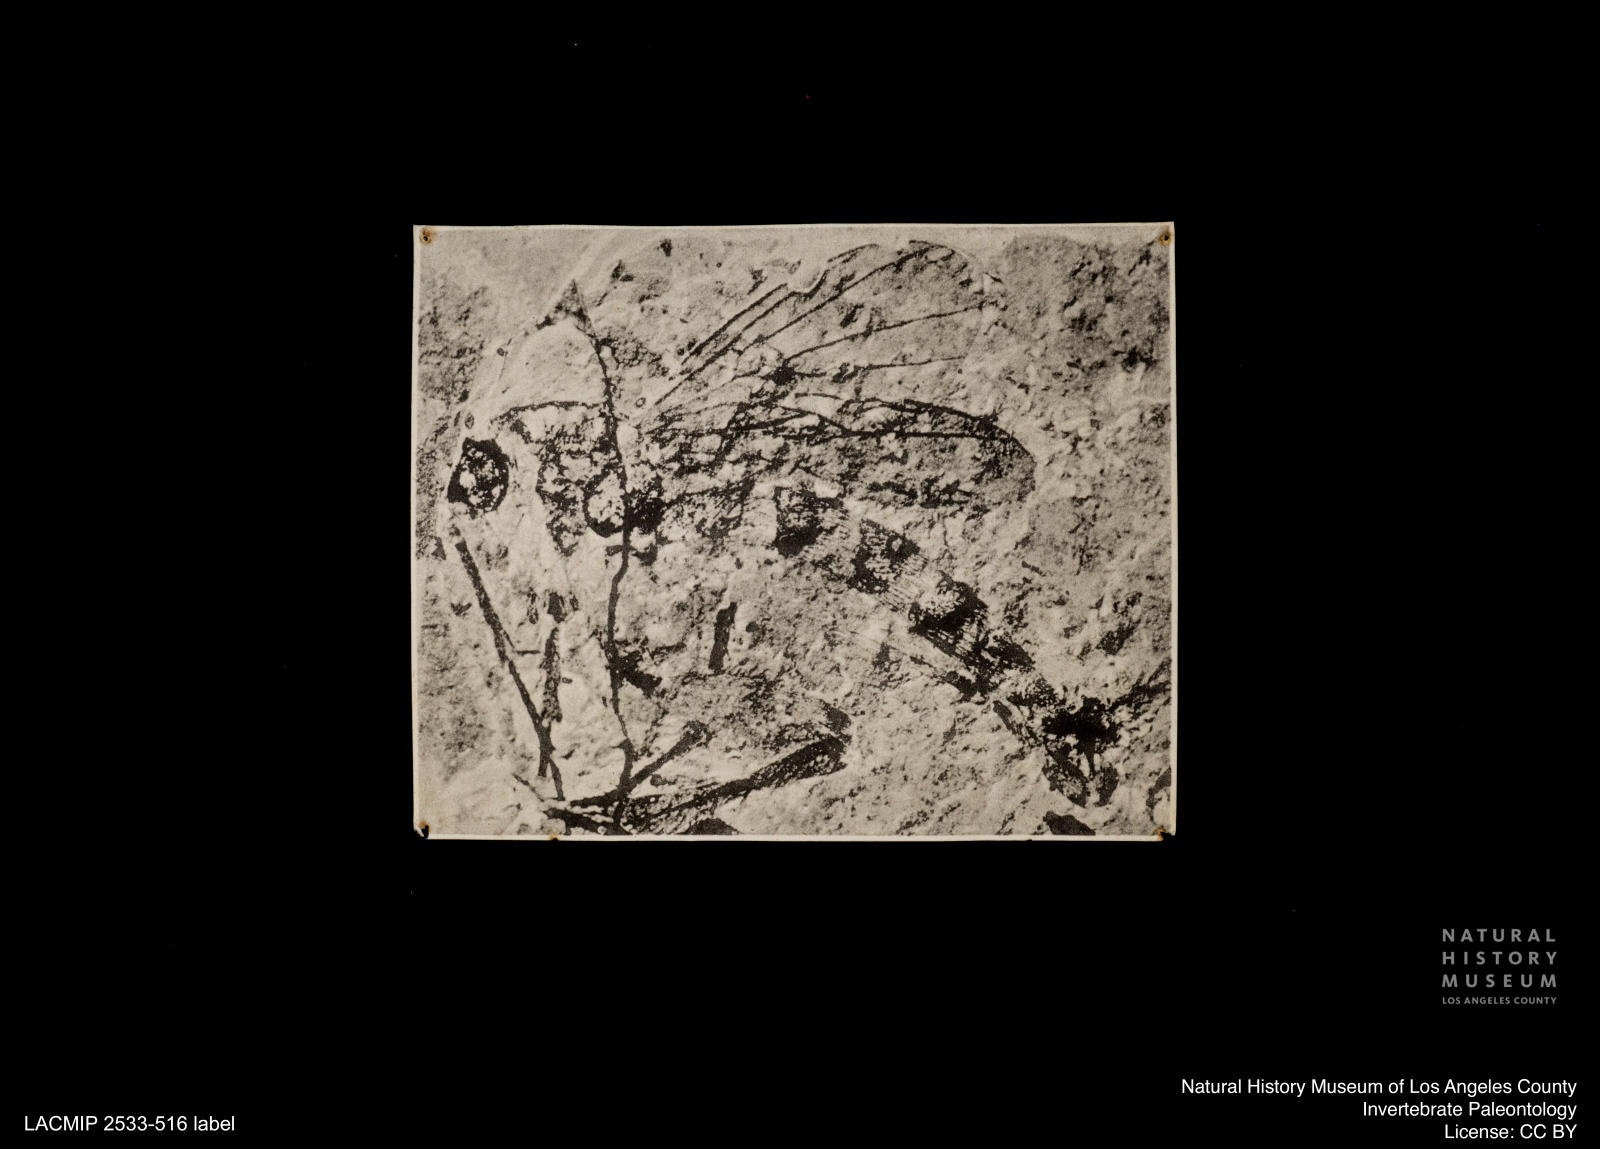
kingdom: Animalia
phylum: Arthropoda
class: Insecta
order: Diptera
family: Mycetophilidae
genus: Boletina
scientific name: Boletina graciosa
